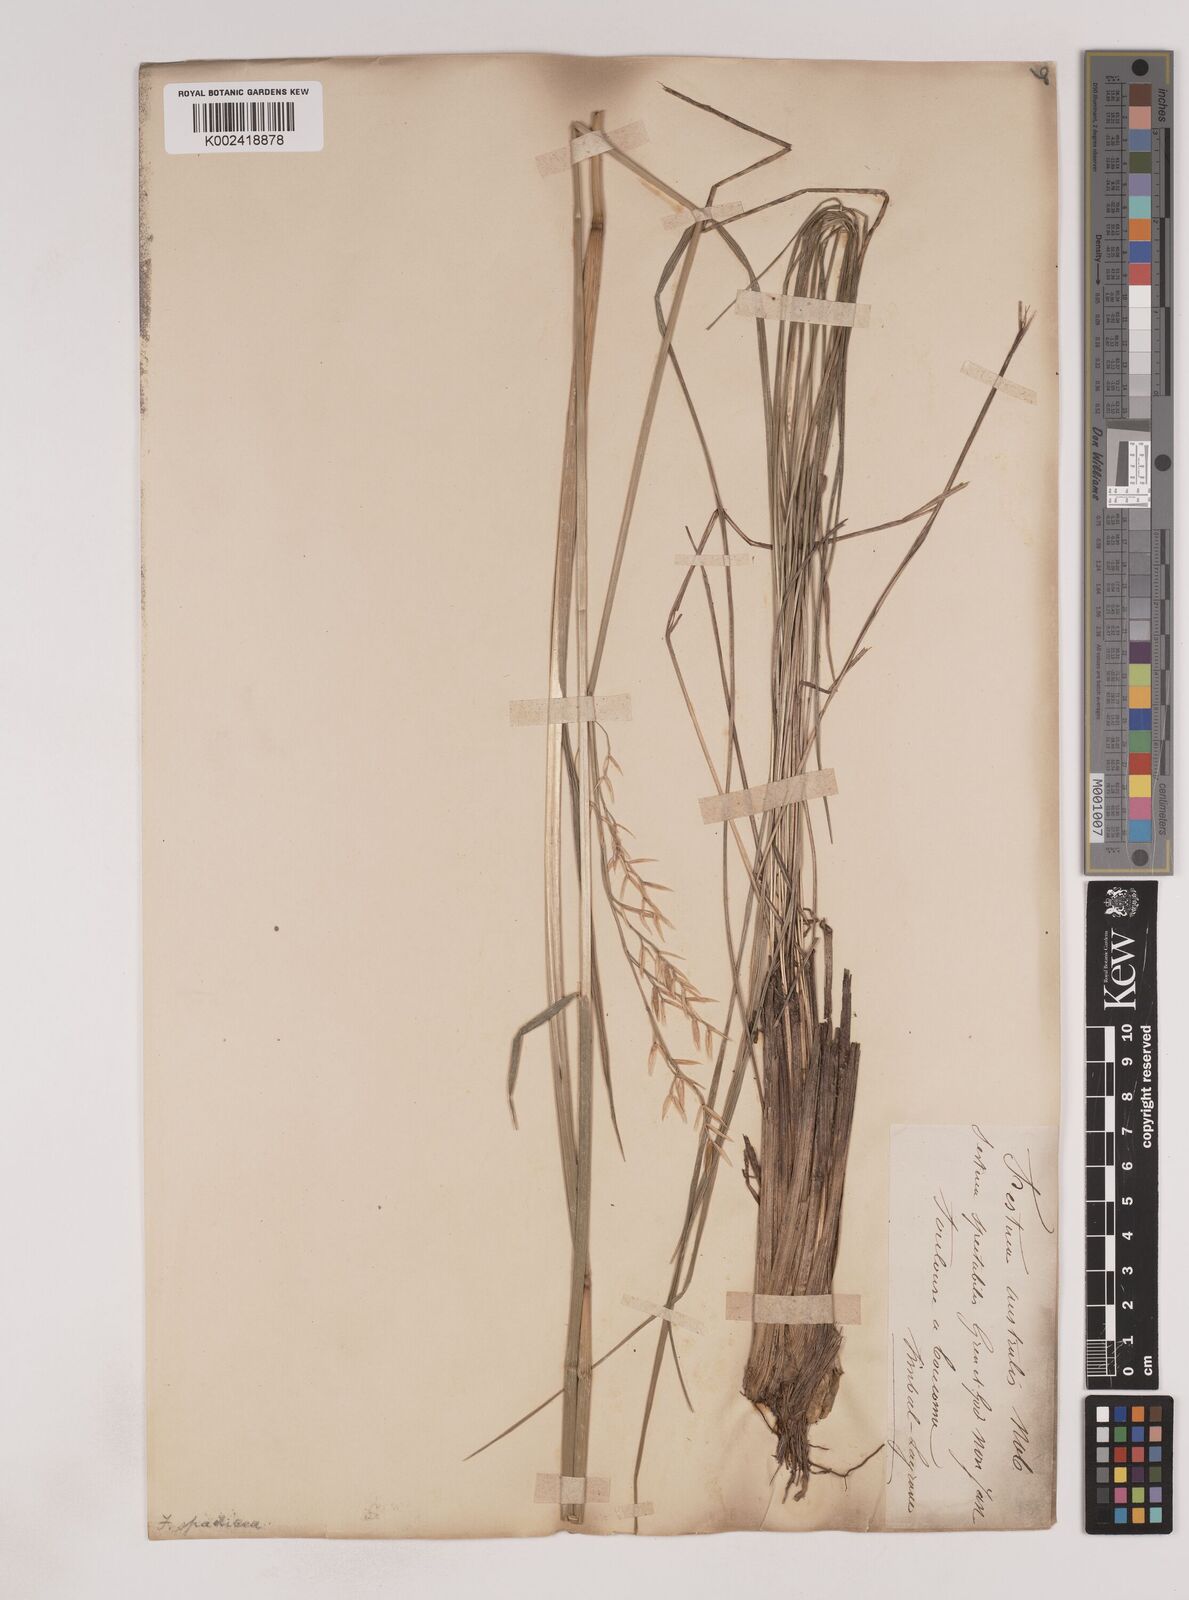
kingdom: Plantae
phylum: Tracheophyta
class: Liliopsida
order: Poales
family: Poaceae
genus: Patzkea
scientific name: Patzkea paniculata
